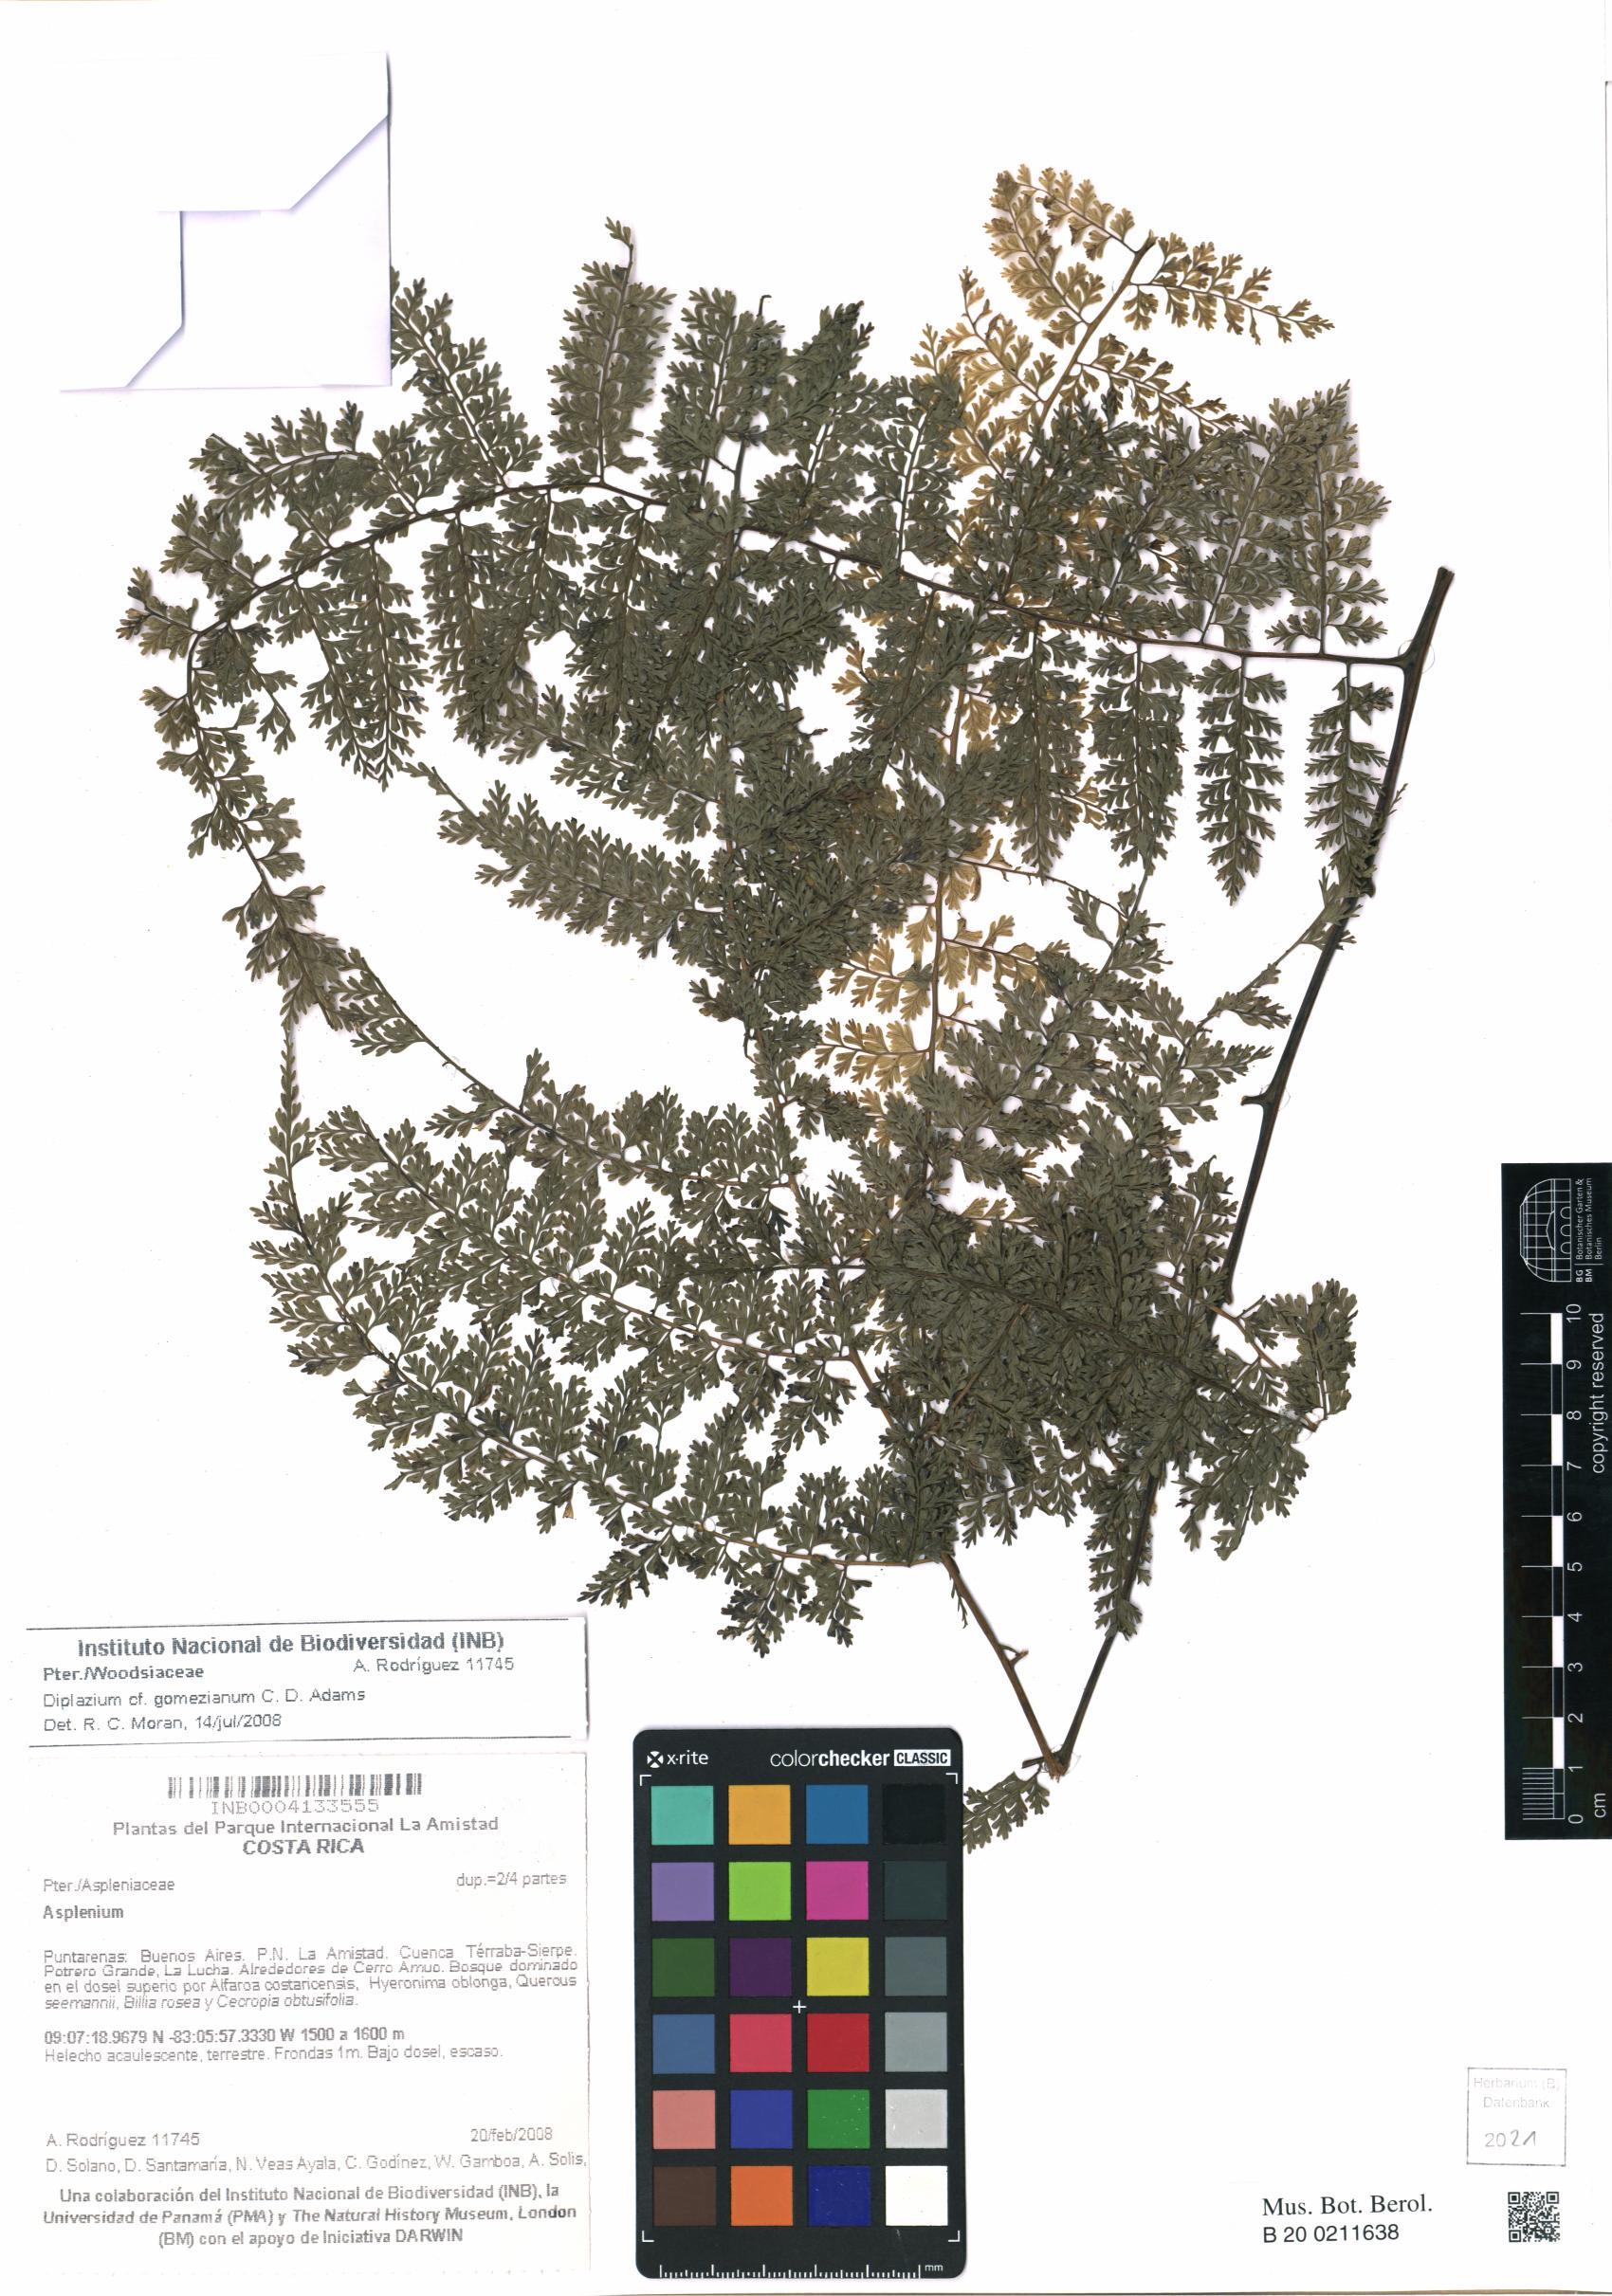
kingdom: Plantae
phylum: Tracheophyta
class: Polypodiopsida
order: Polypodiales
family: Athyriaceae
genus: Diplazium
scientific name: Diplazium gomezianum
